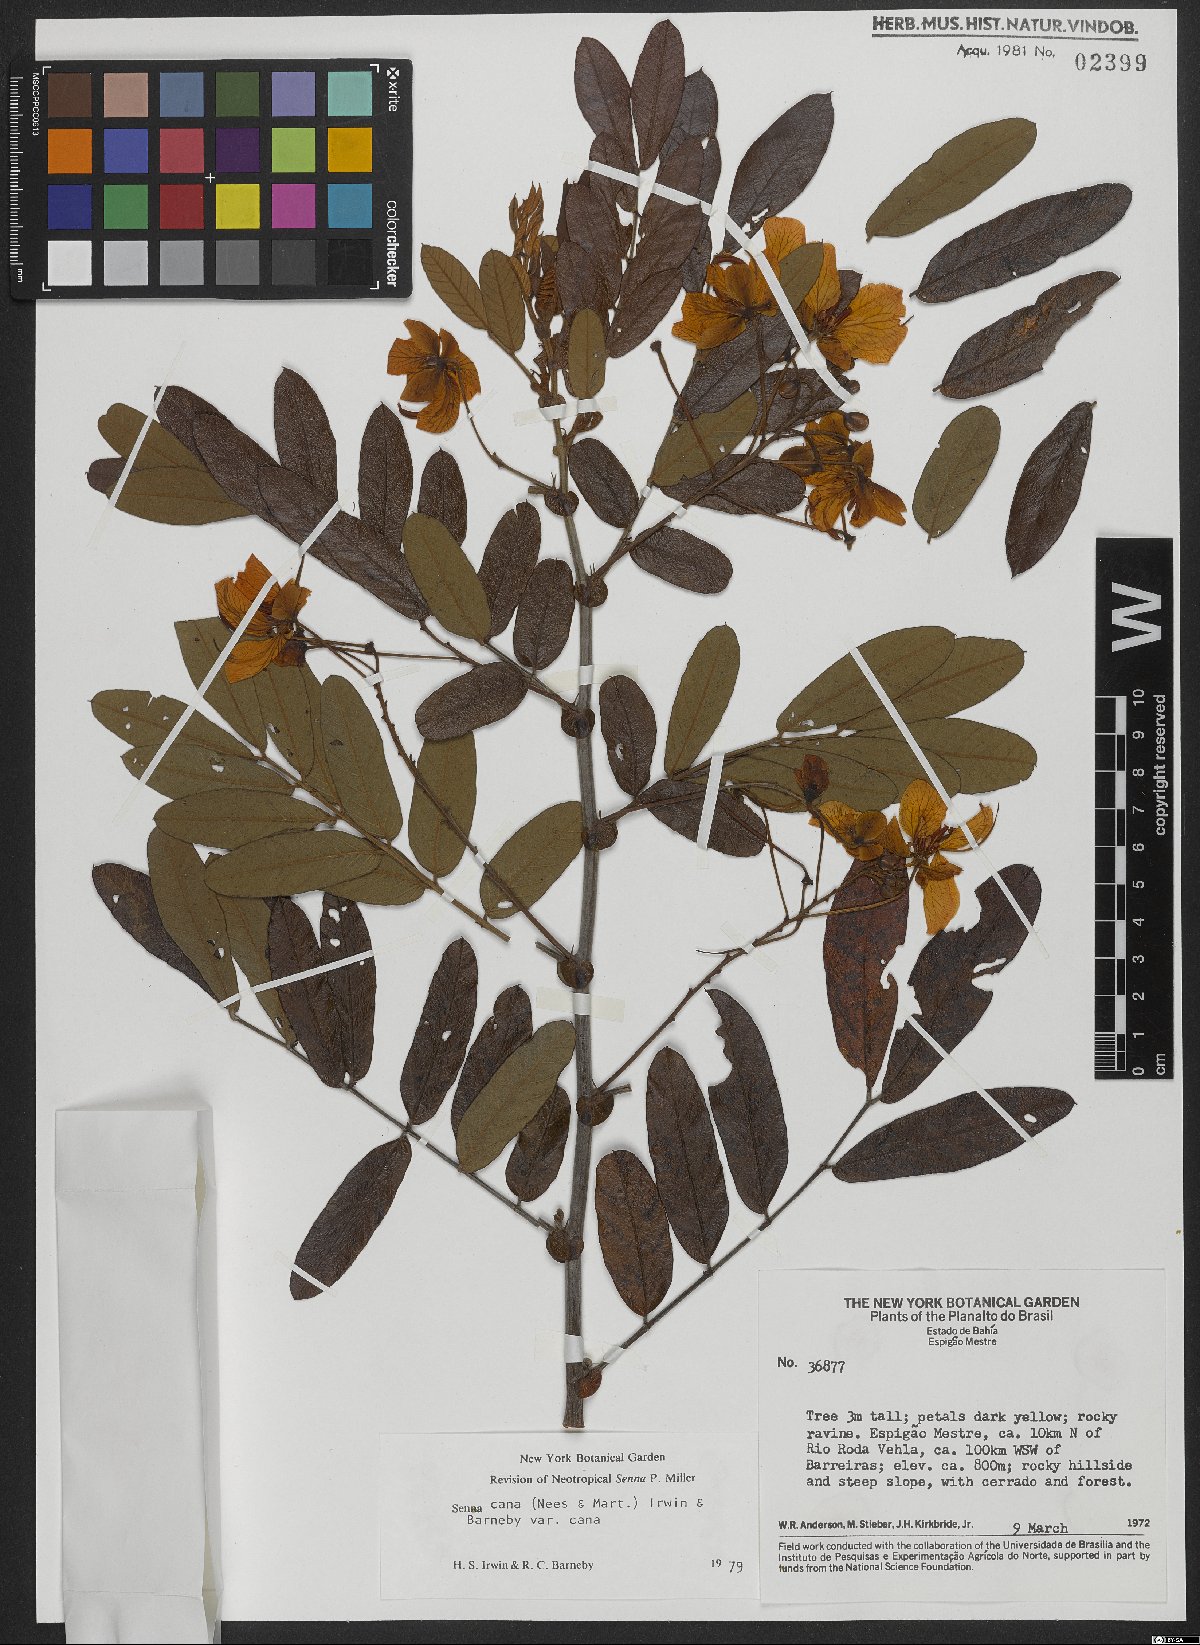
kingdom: Plantae
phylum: Tracheophyta
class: Magnoliopsida
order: Fabales
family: Fabaceae
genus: Senna
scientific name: Senna cana
